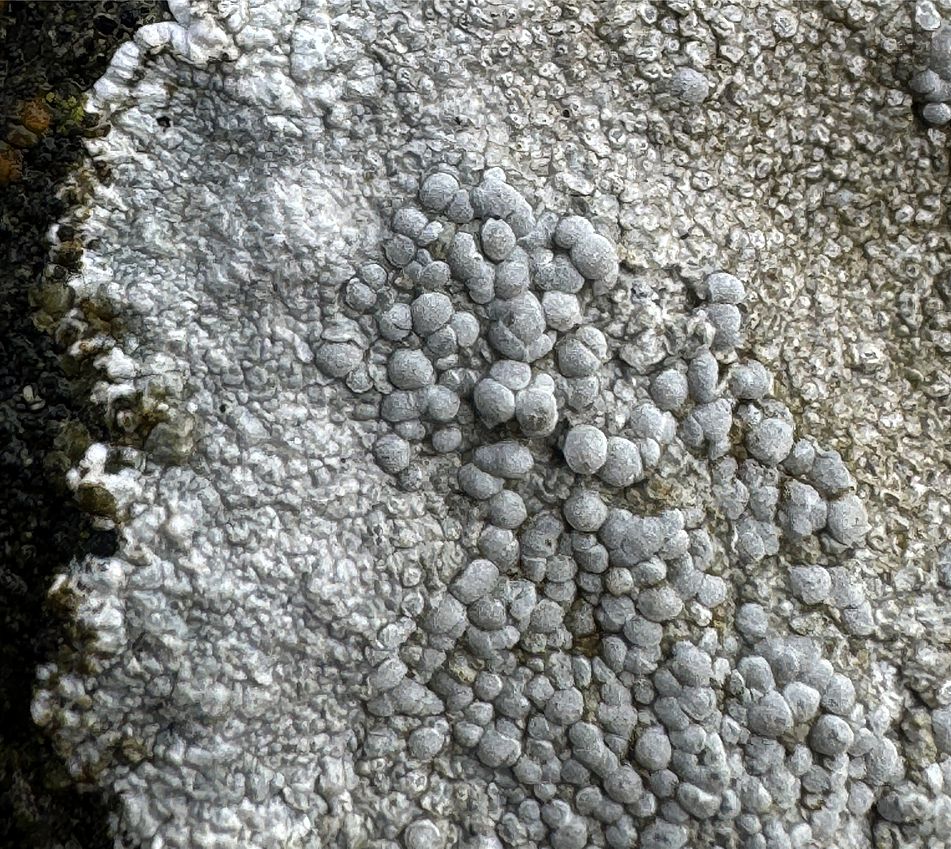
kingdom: Fungi
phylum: Ascomycota
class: Lecanoromycetes
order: Lecanorales
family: Lecanoraceae
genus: Glaucomaria
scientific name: Glaucomaria rupicola
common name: stengærde-kantskivelav
